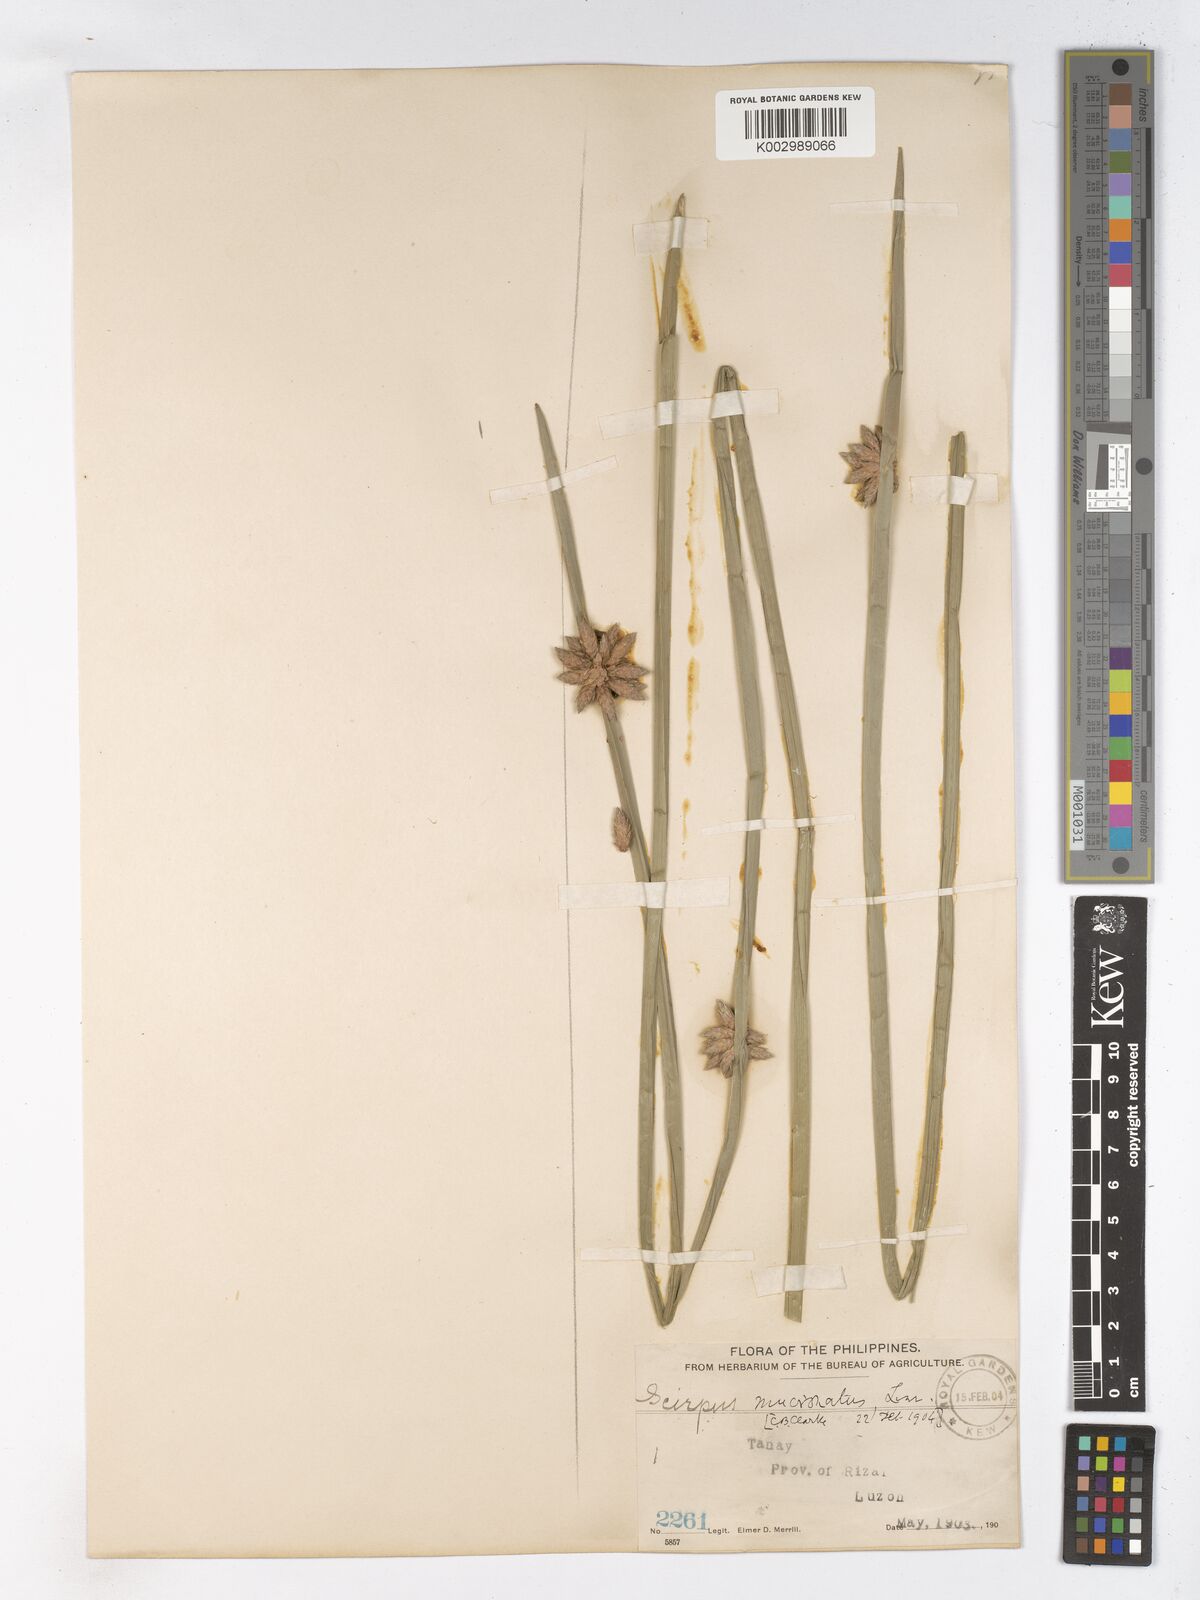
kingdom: Plantae
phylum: Tracheophyta
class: Liliopsida
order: Poales
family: Cyperaceae
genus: Schoenoplectiella
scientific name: Schoenoplectiella mucronata
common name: Bog bulrush
